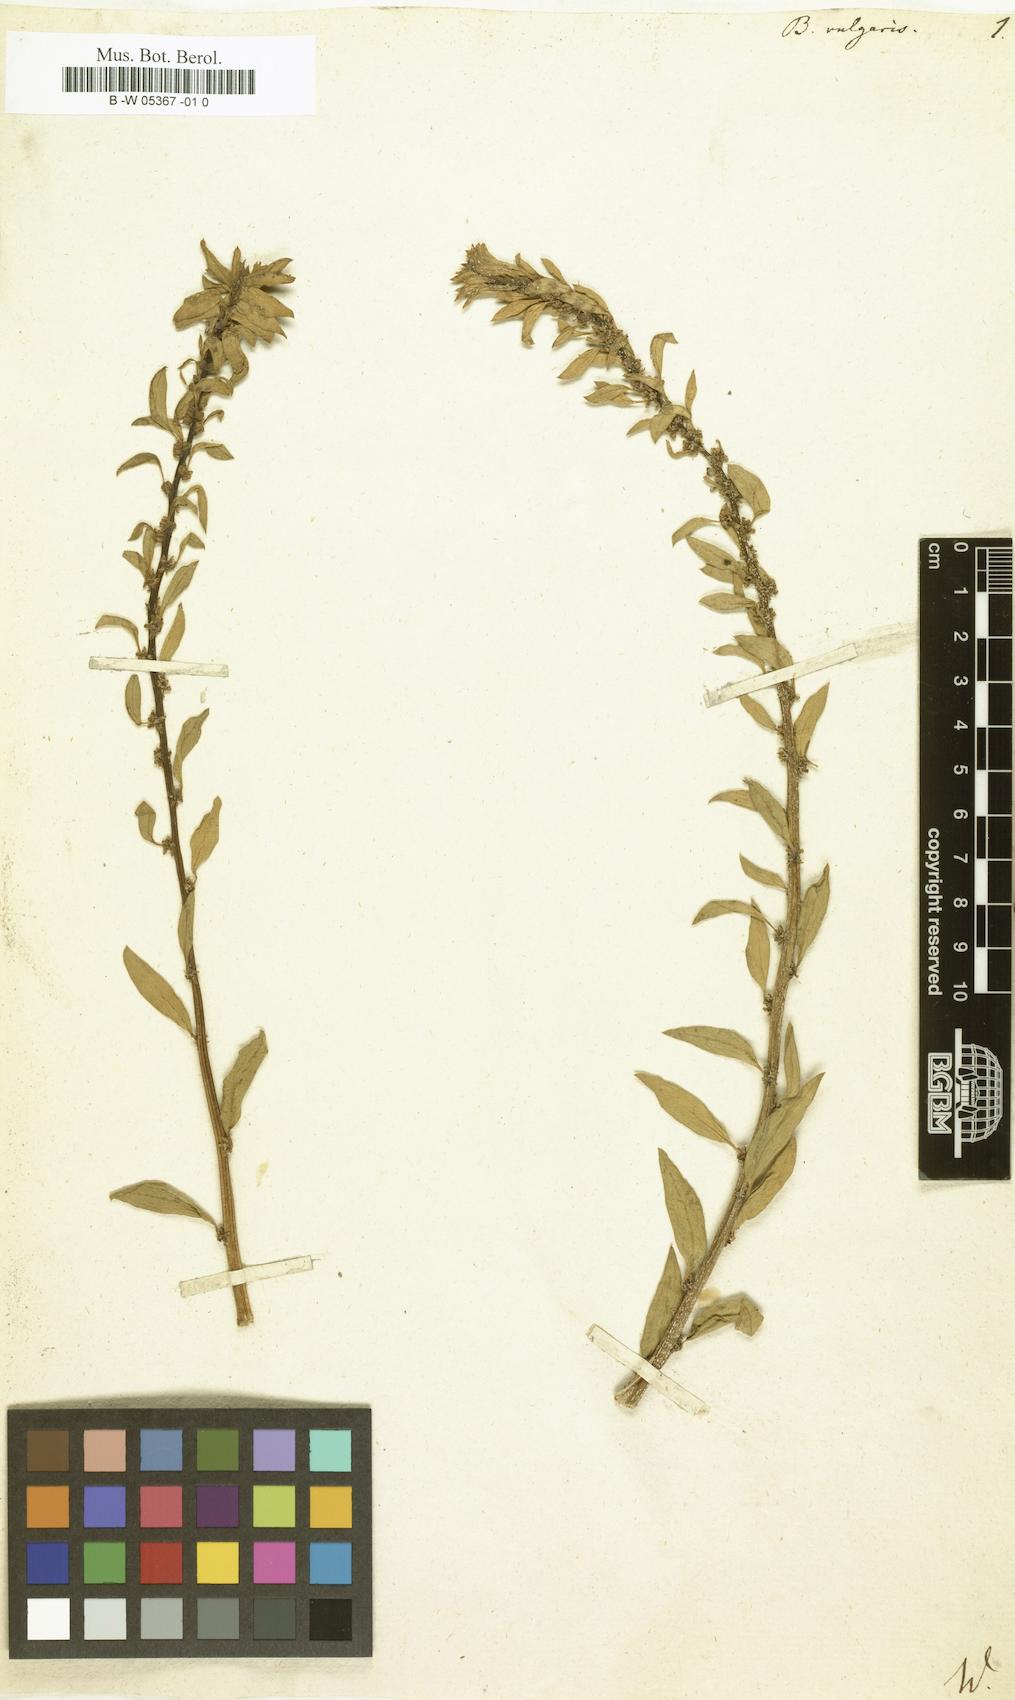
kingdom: Plantae
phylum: Tracheophyta
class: Magnoliopsida
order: Caryophyllales
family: Amaranthaceae
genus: Beta
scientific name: Beta vulgaris
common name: Beet
